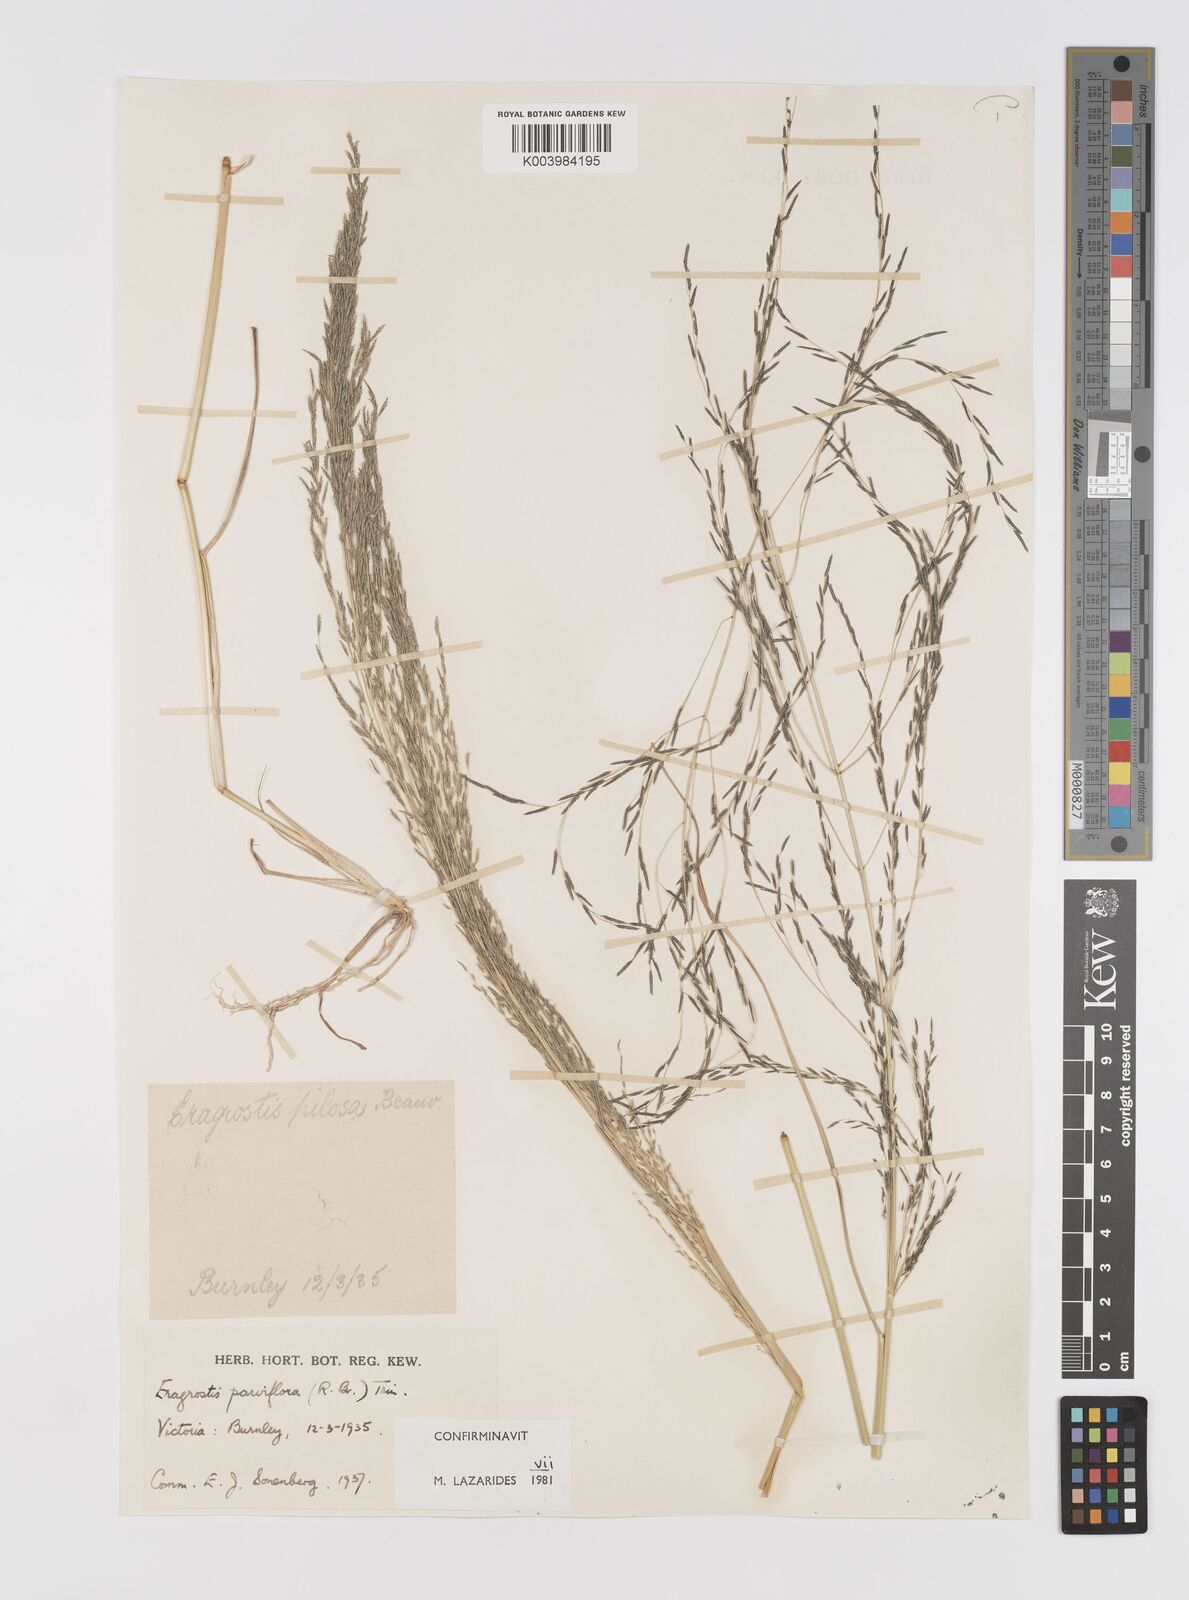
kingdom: Plantae
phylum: Tracheophyta
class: Liliopsida
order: Poales
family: Poaceae
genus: Eragrostis
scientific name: Eragrostis parviflora
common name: Weeping love-grass
